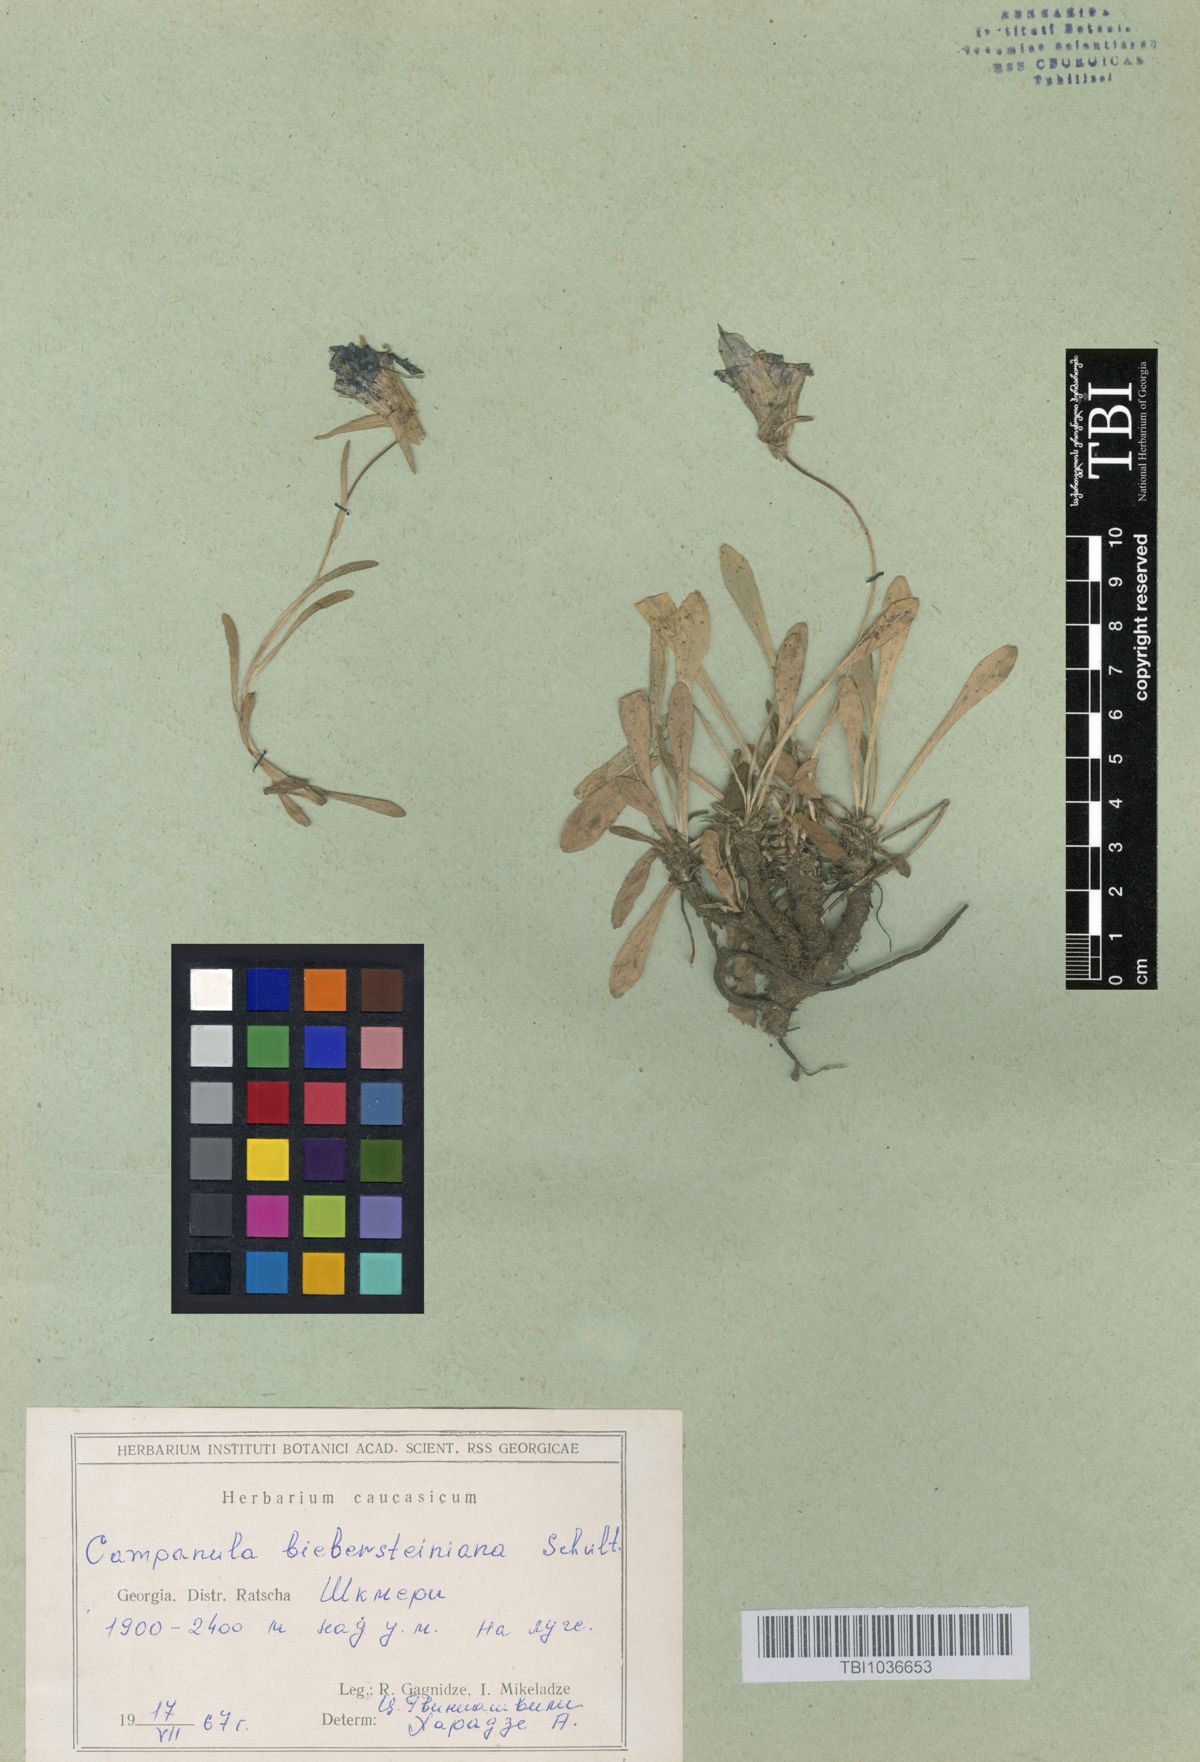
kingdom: Plantae
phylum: Tracheophyta
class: Magnoliopsida
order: Asterales
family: Campanulaceae
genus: Campanula
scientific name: Campanula tridentata
